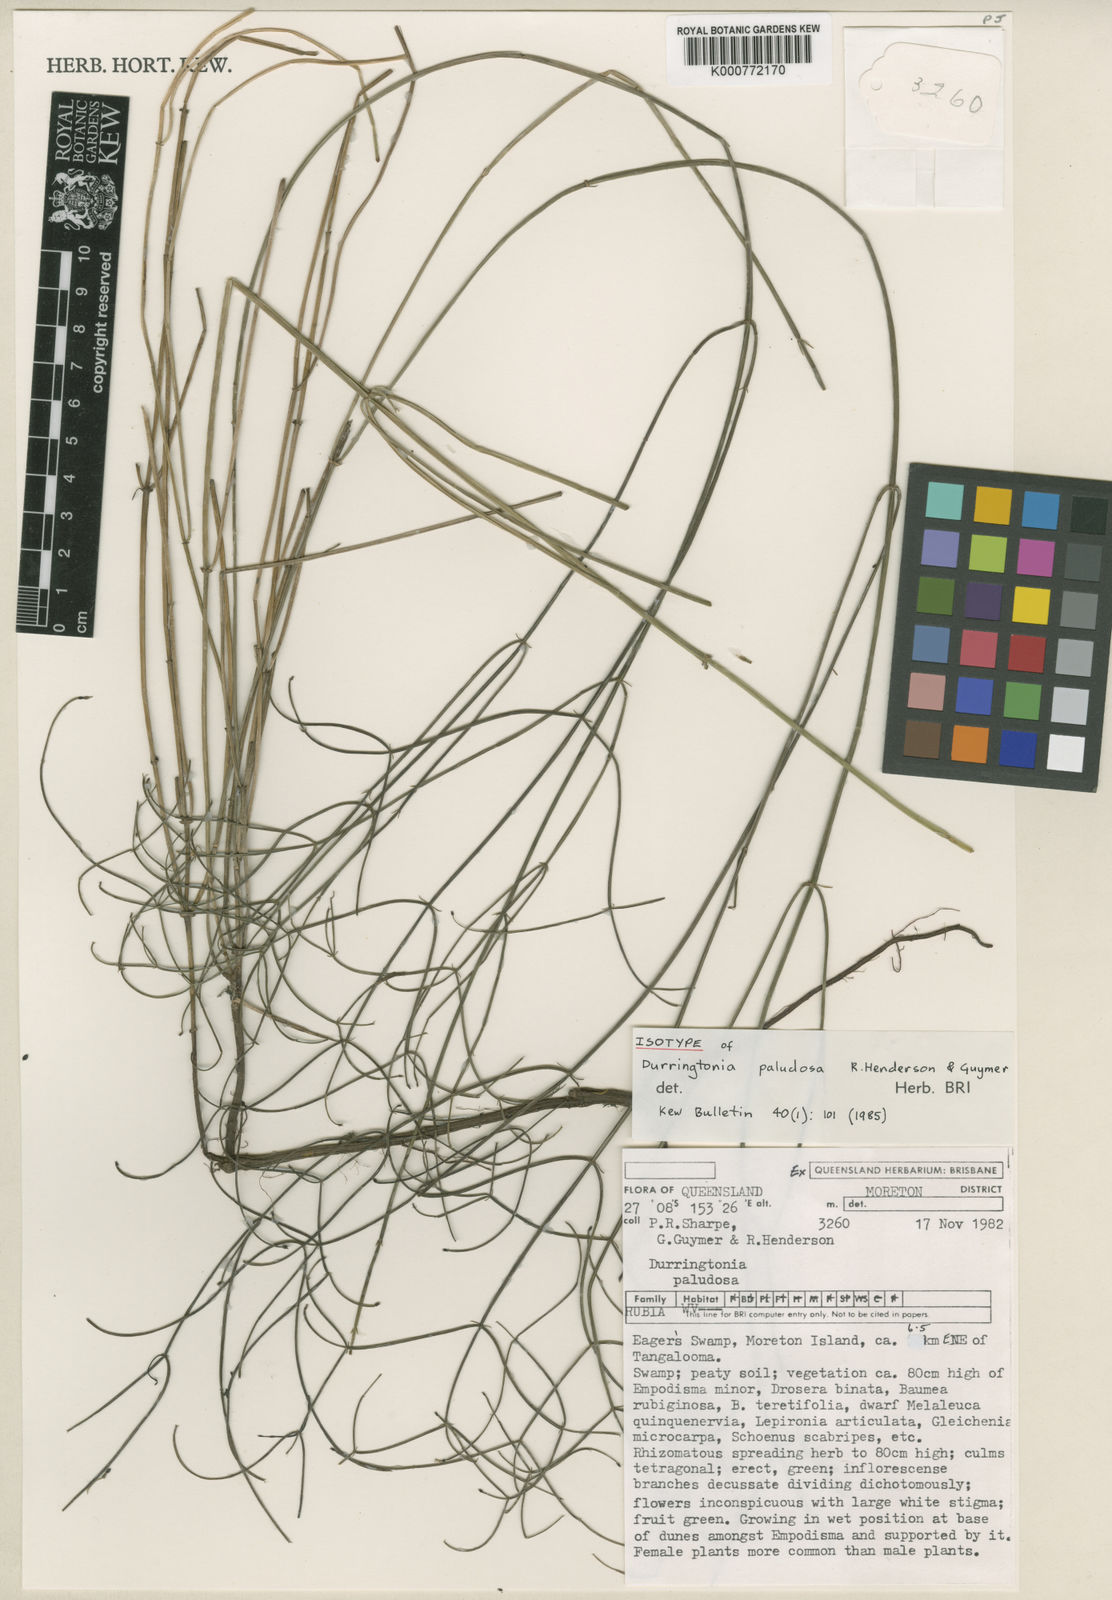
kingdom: Plantae
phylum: Tracheophyta
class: Magnoliopsida
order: Gentianales
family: Rubiaceae
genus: Durringtonia
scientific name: Durringtonia paludosa
